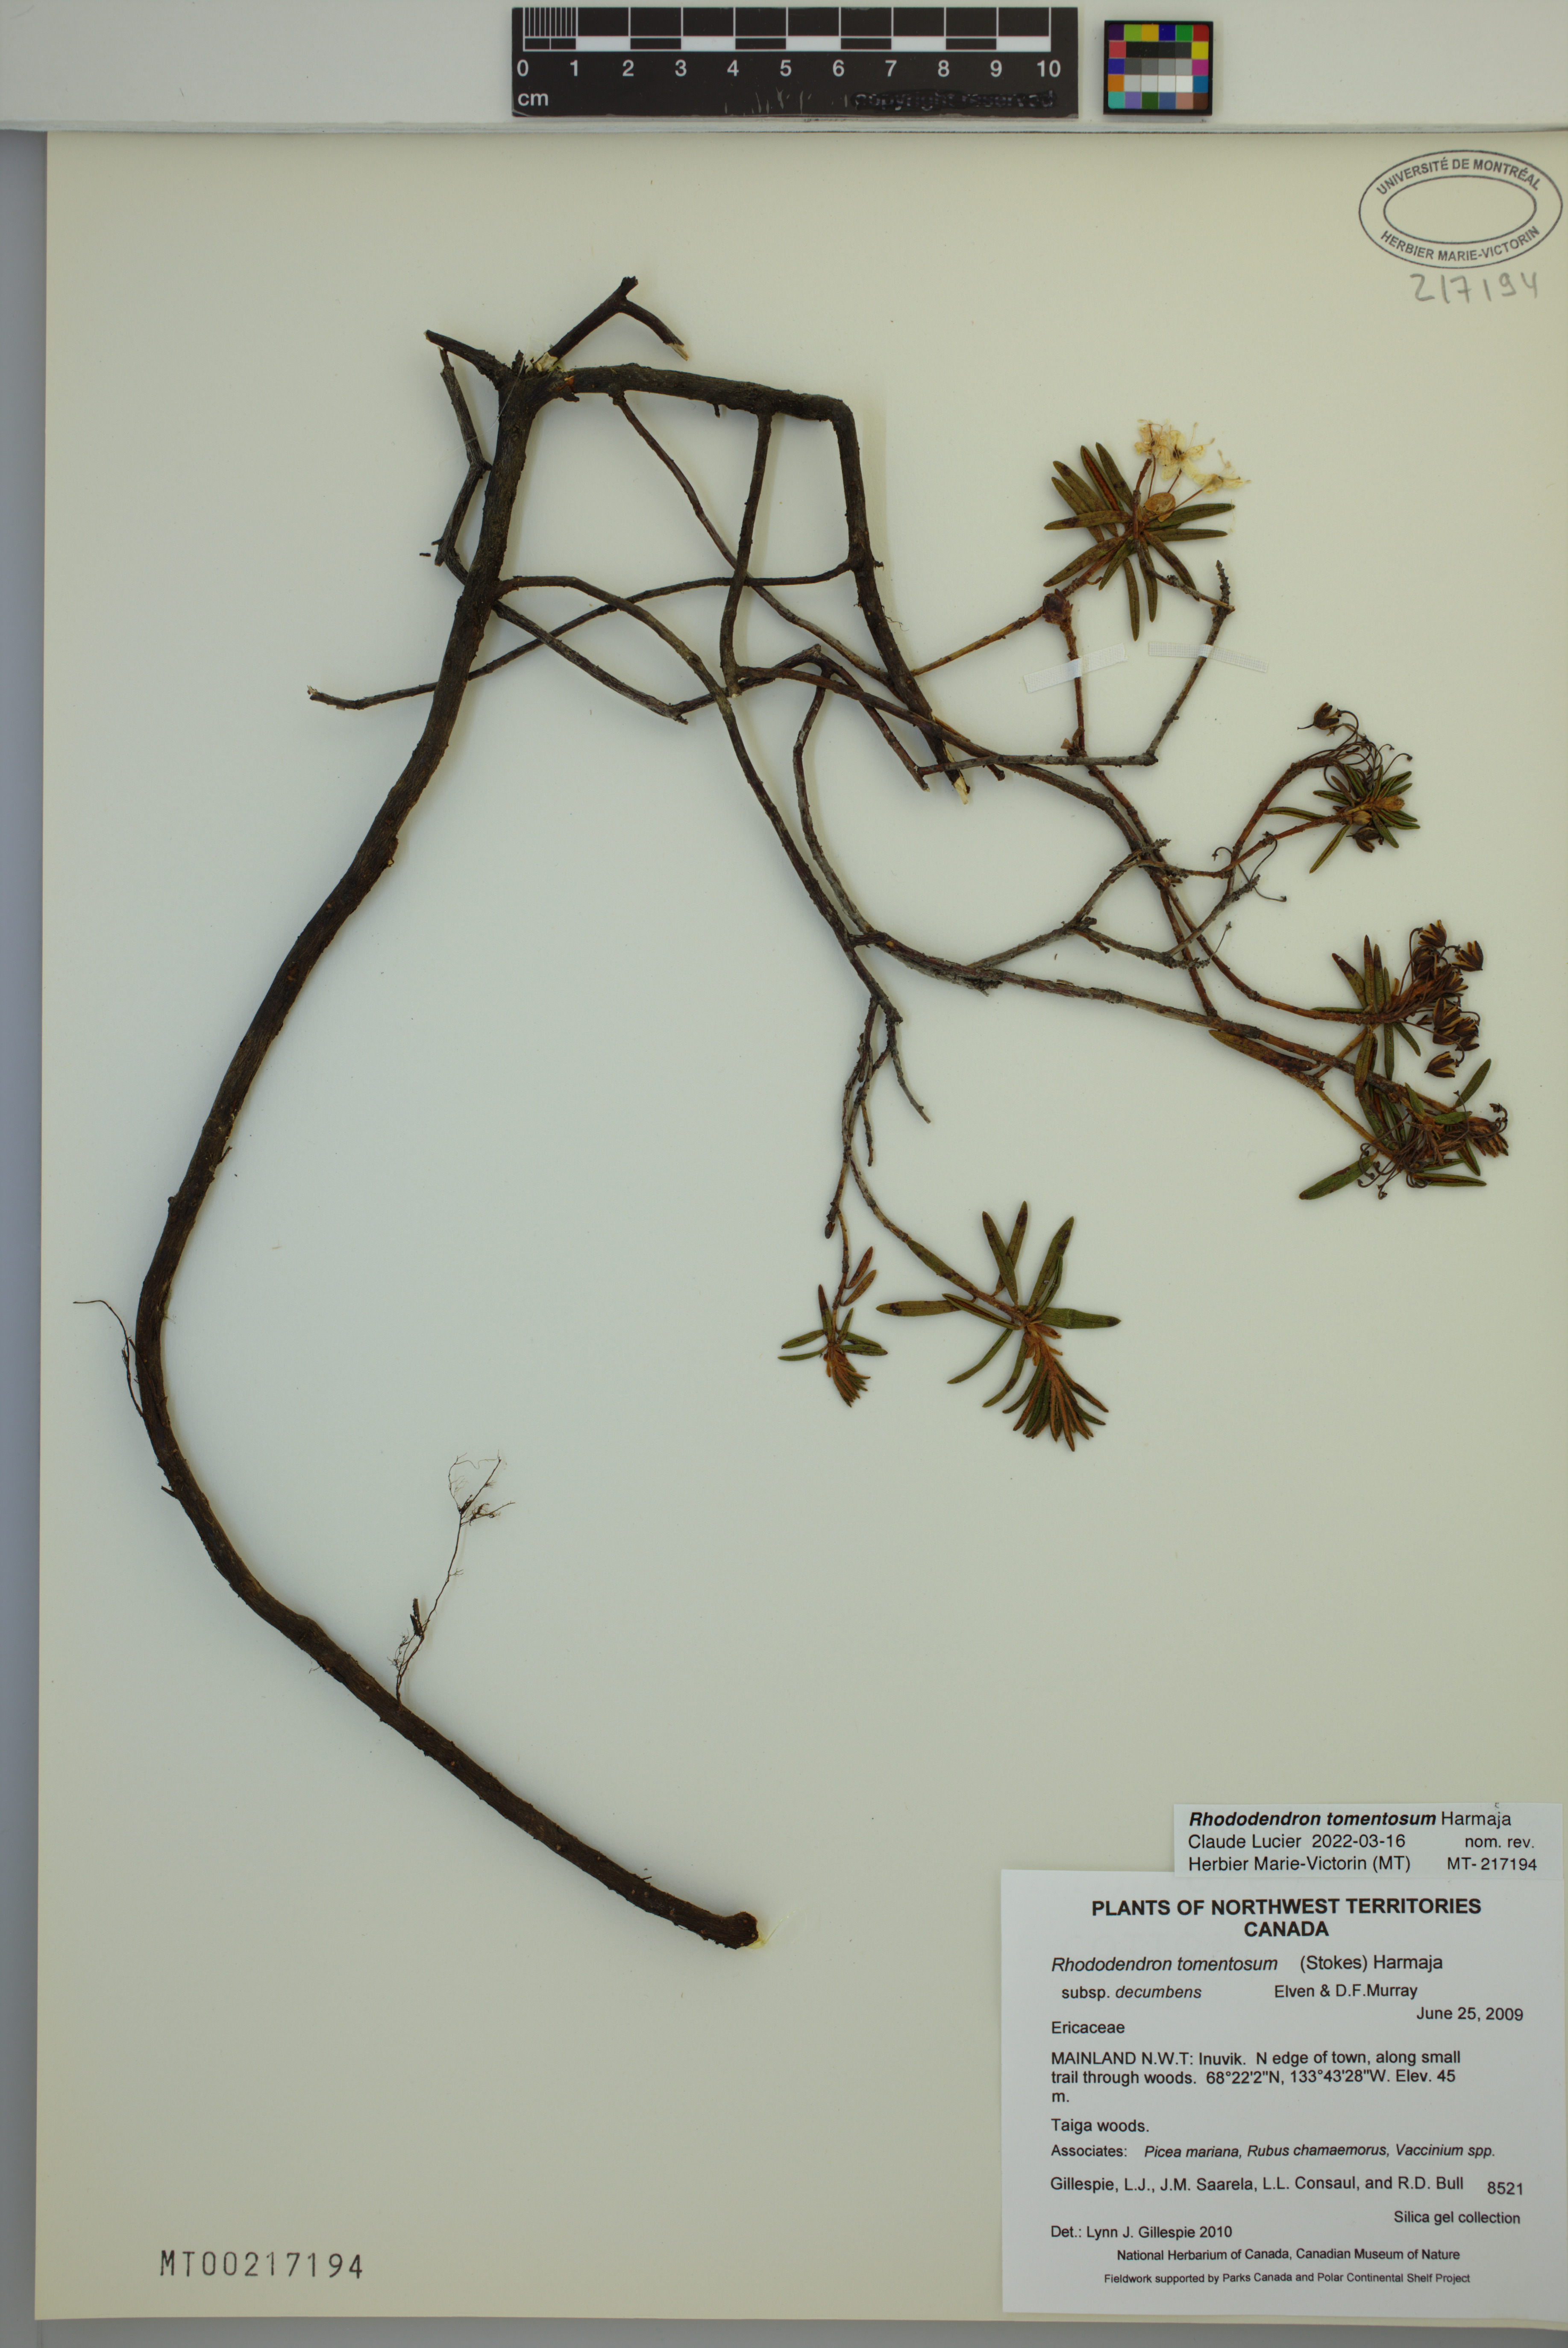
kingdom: Plantae
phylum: Tracheophyta
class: Magnoliopsida
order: Ericales
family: Ericaceae
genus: Rhododendron
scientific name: Rhododendron tomentosum
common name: Marsh labrador tea
